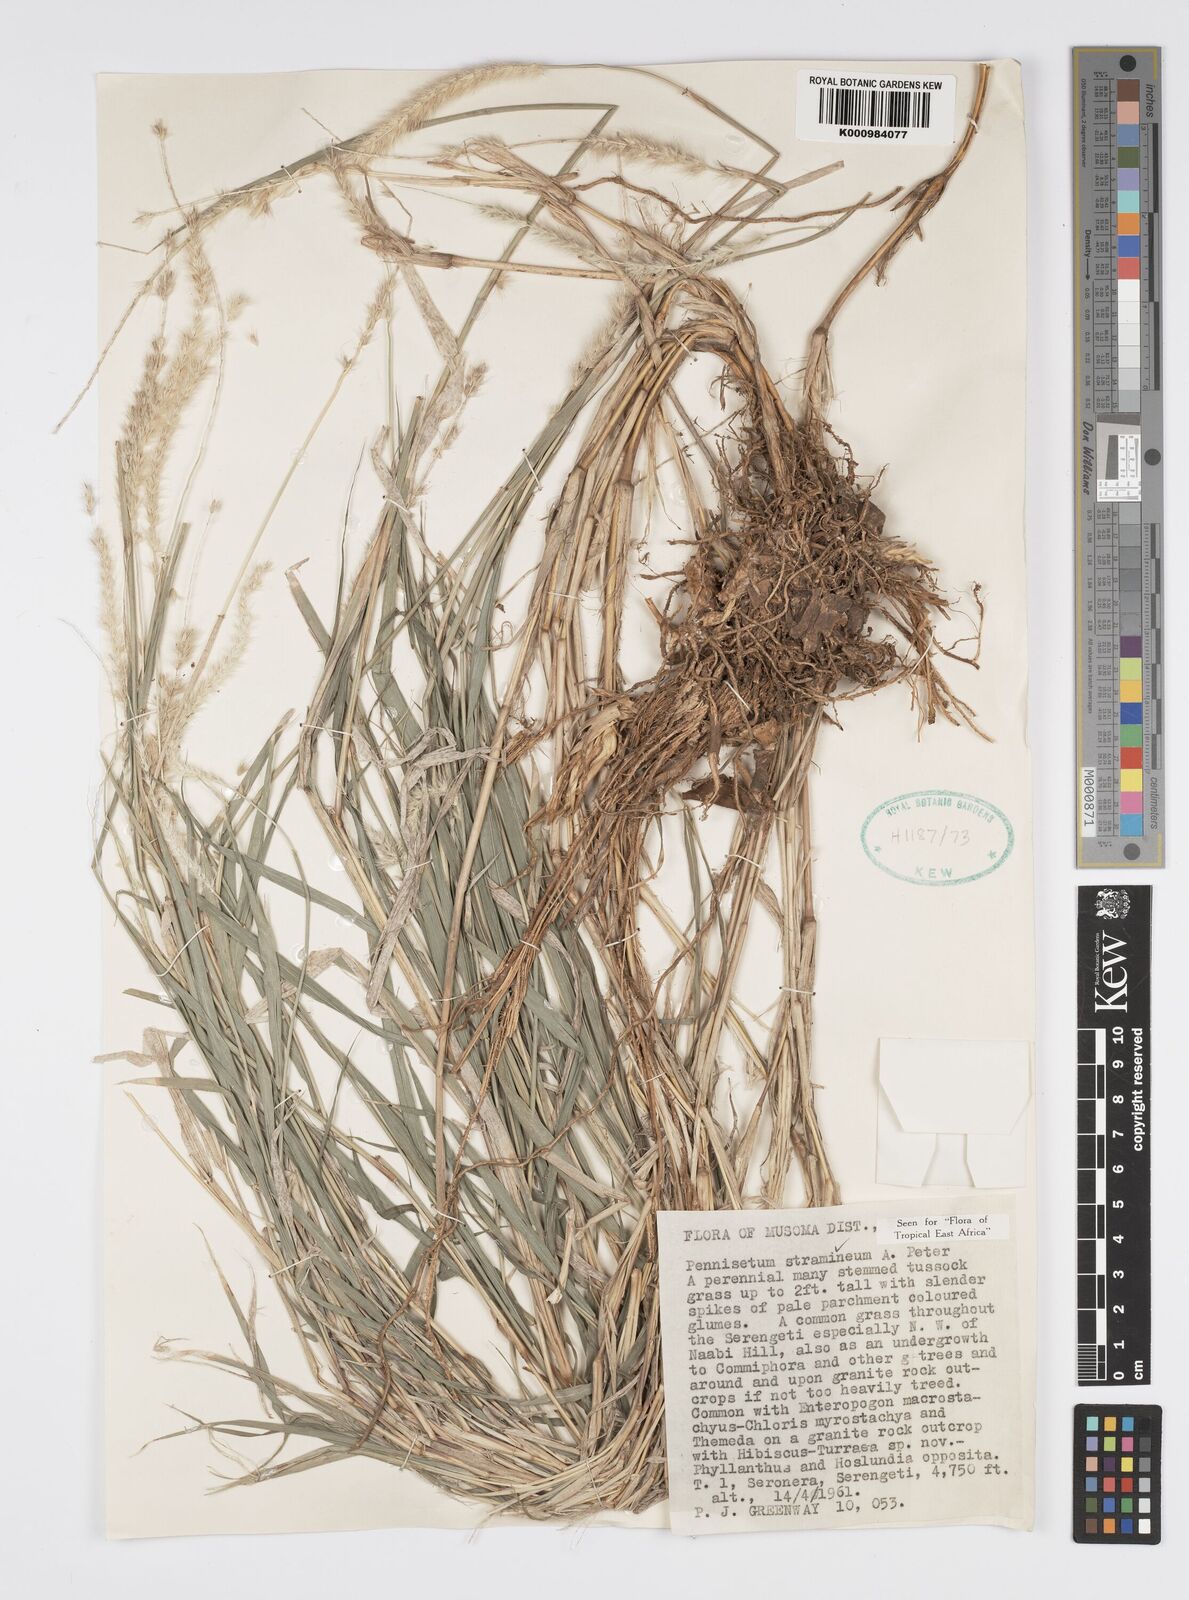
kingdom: Plantae
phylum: Tracheophyta
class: Liliopsida
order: Poales
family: Poaceae
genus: Cenchrus
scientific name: Cenchrus stramineus
